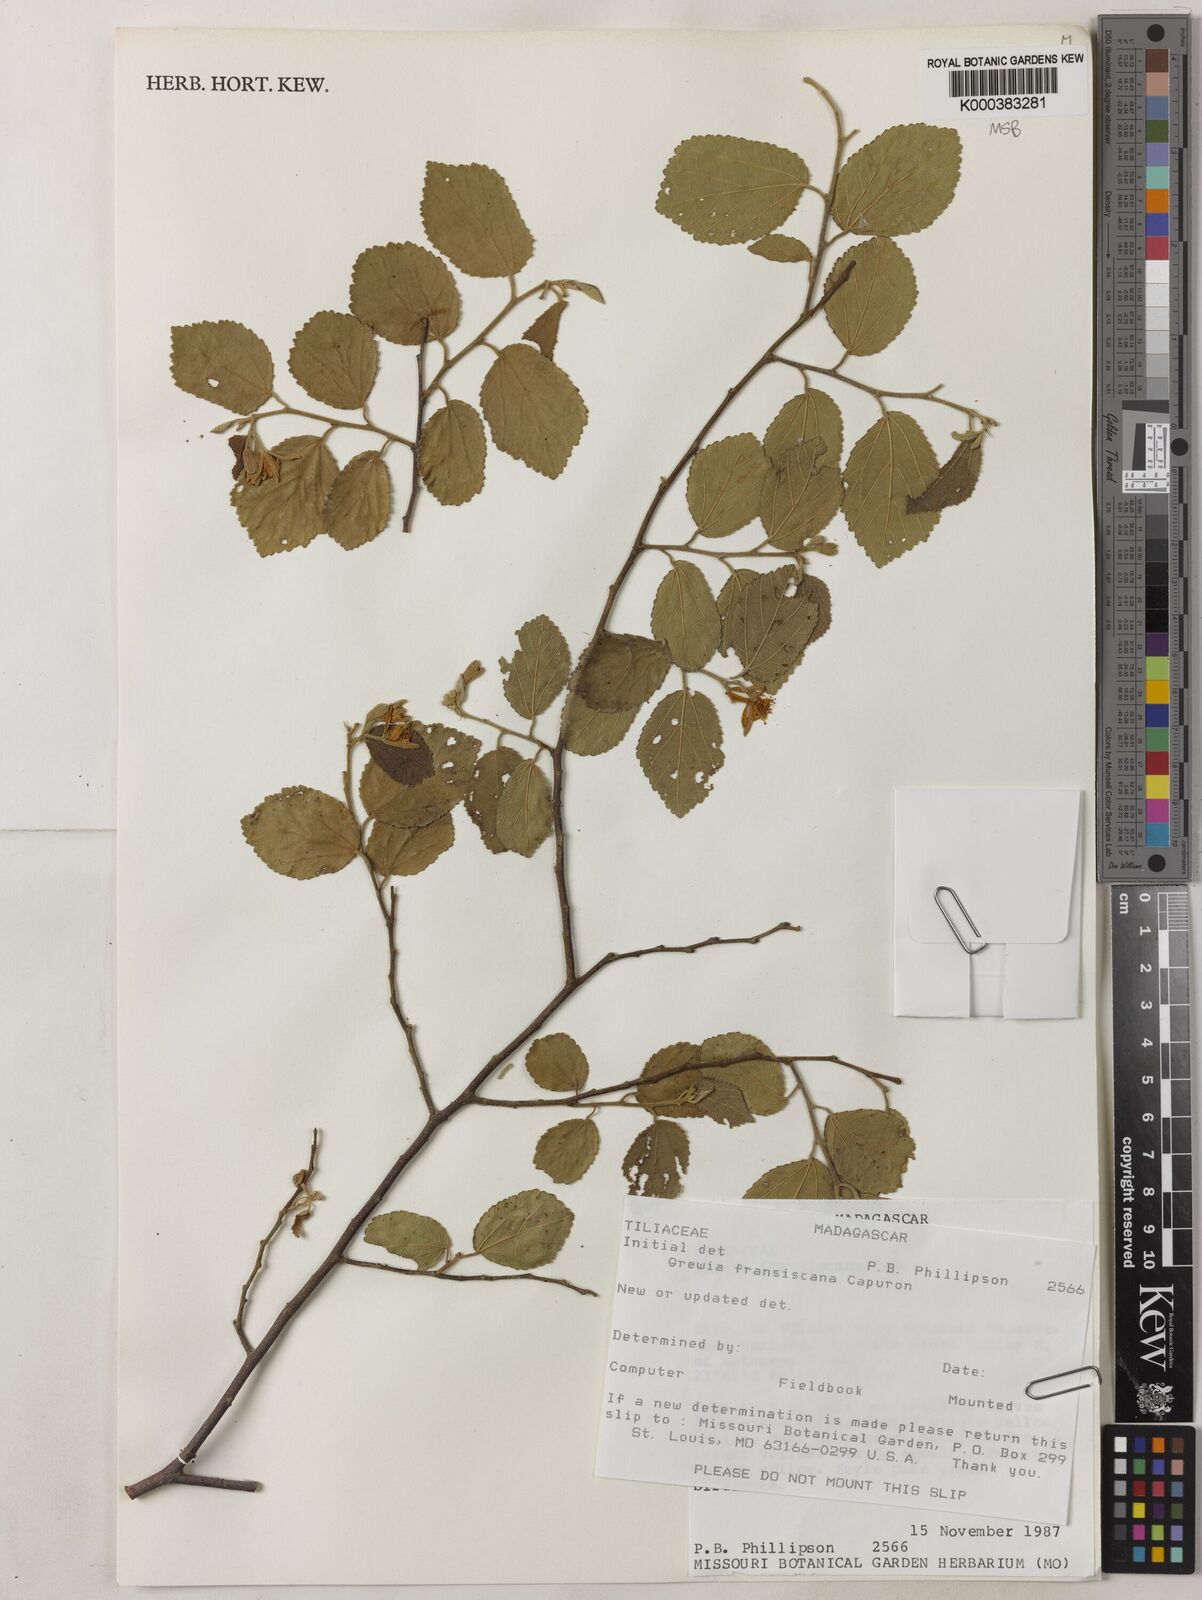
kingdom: Plantae
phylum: Tracheophyta
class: Magnoliopsida
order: Malvales
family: Malvaceae
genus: Grewia
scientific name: Grewia
